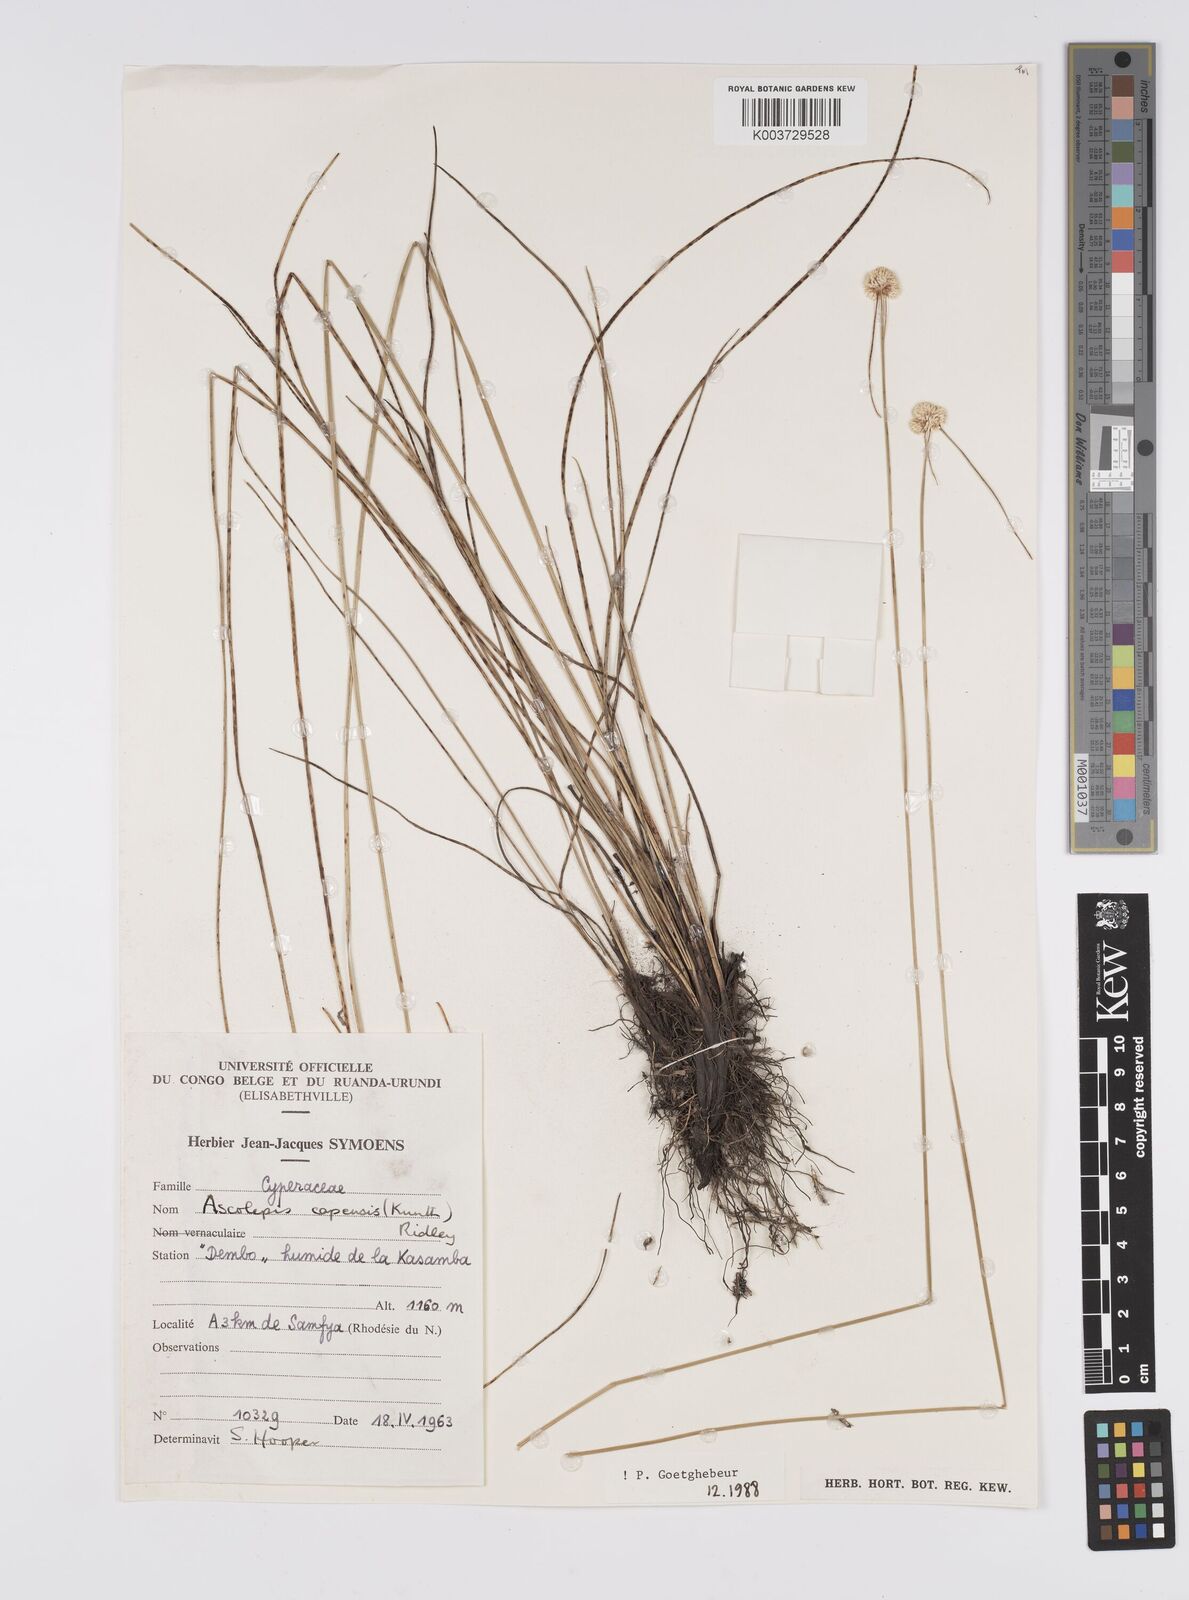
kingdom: Plantae
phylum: Tracheophyta
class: Liliopsida
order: Poales
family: Cyperaceae
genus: Cyperus
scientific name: Cyperus
